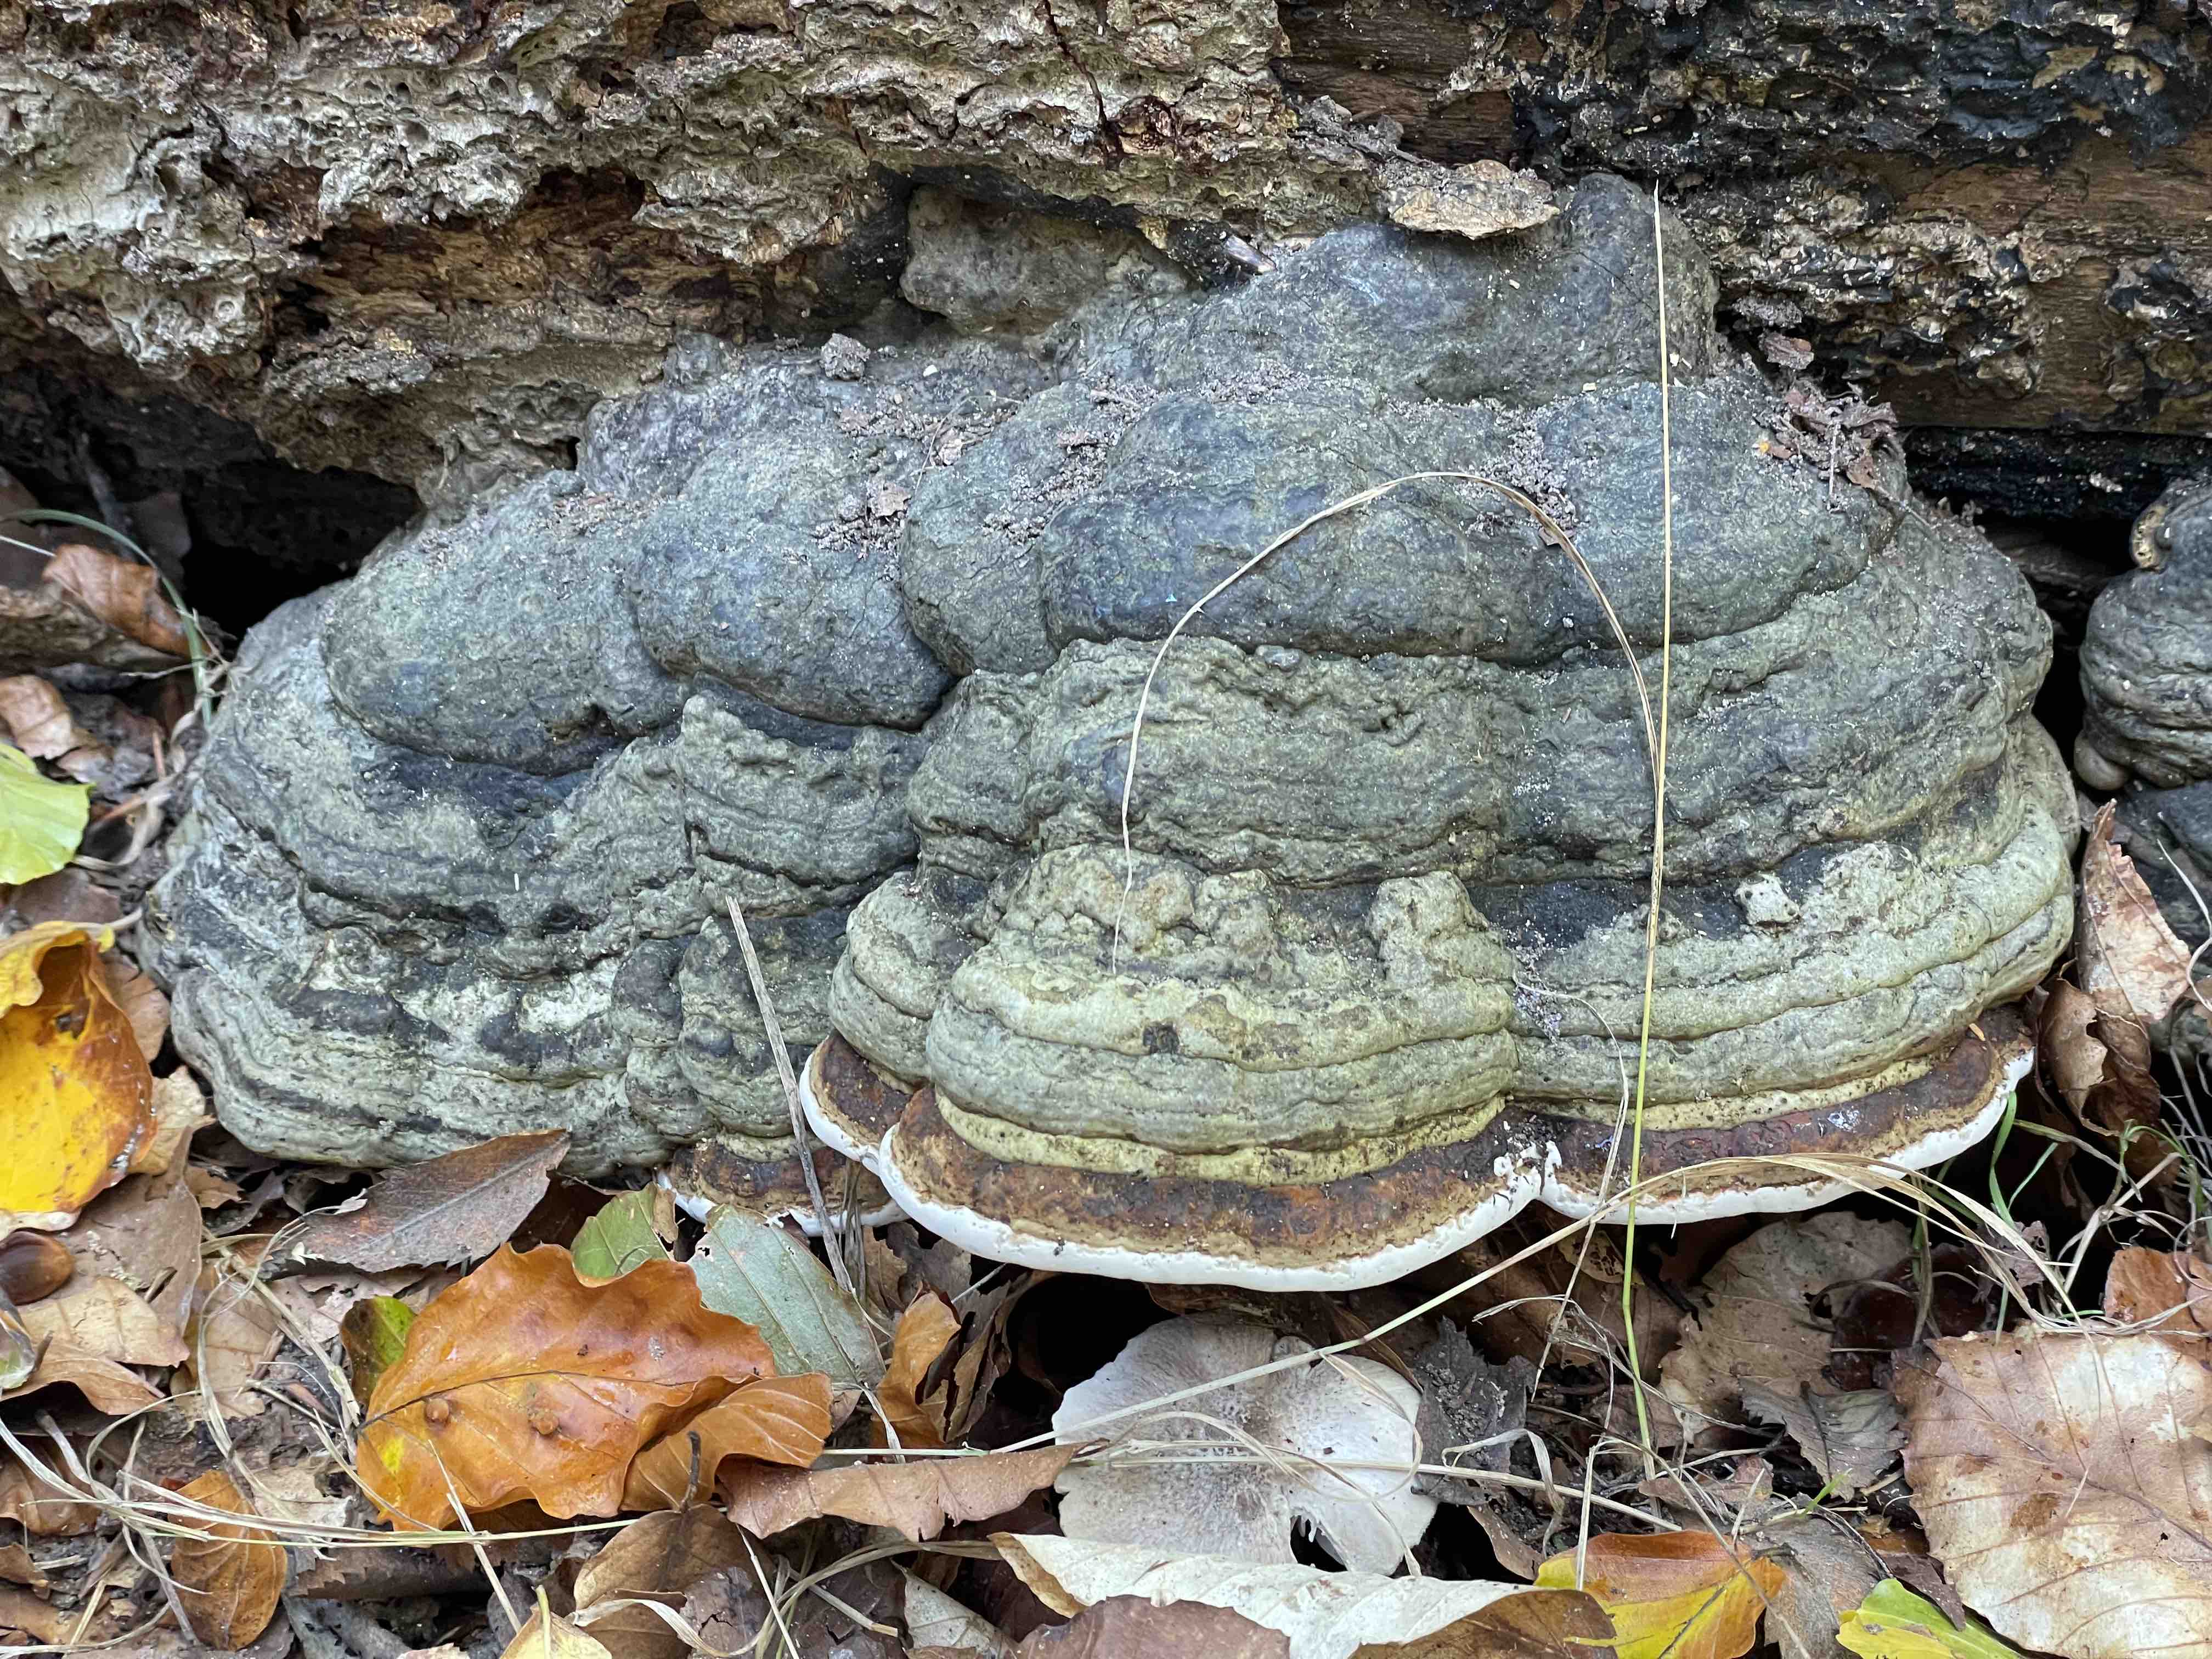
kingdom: Fungi
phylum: Basidiomycota
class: Agaricomycetes
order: Polyporales
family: Polyporaceae
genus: Fomes
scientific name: Fomes fomentarius
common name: tøndersvamp
